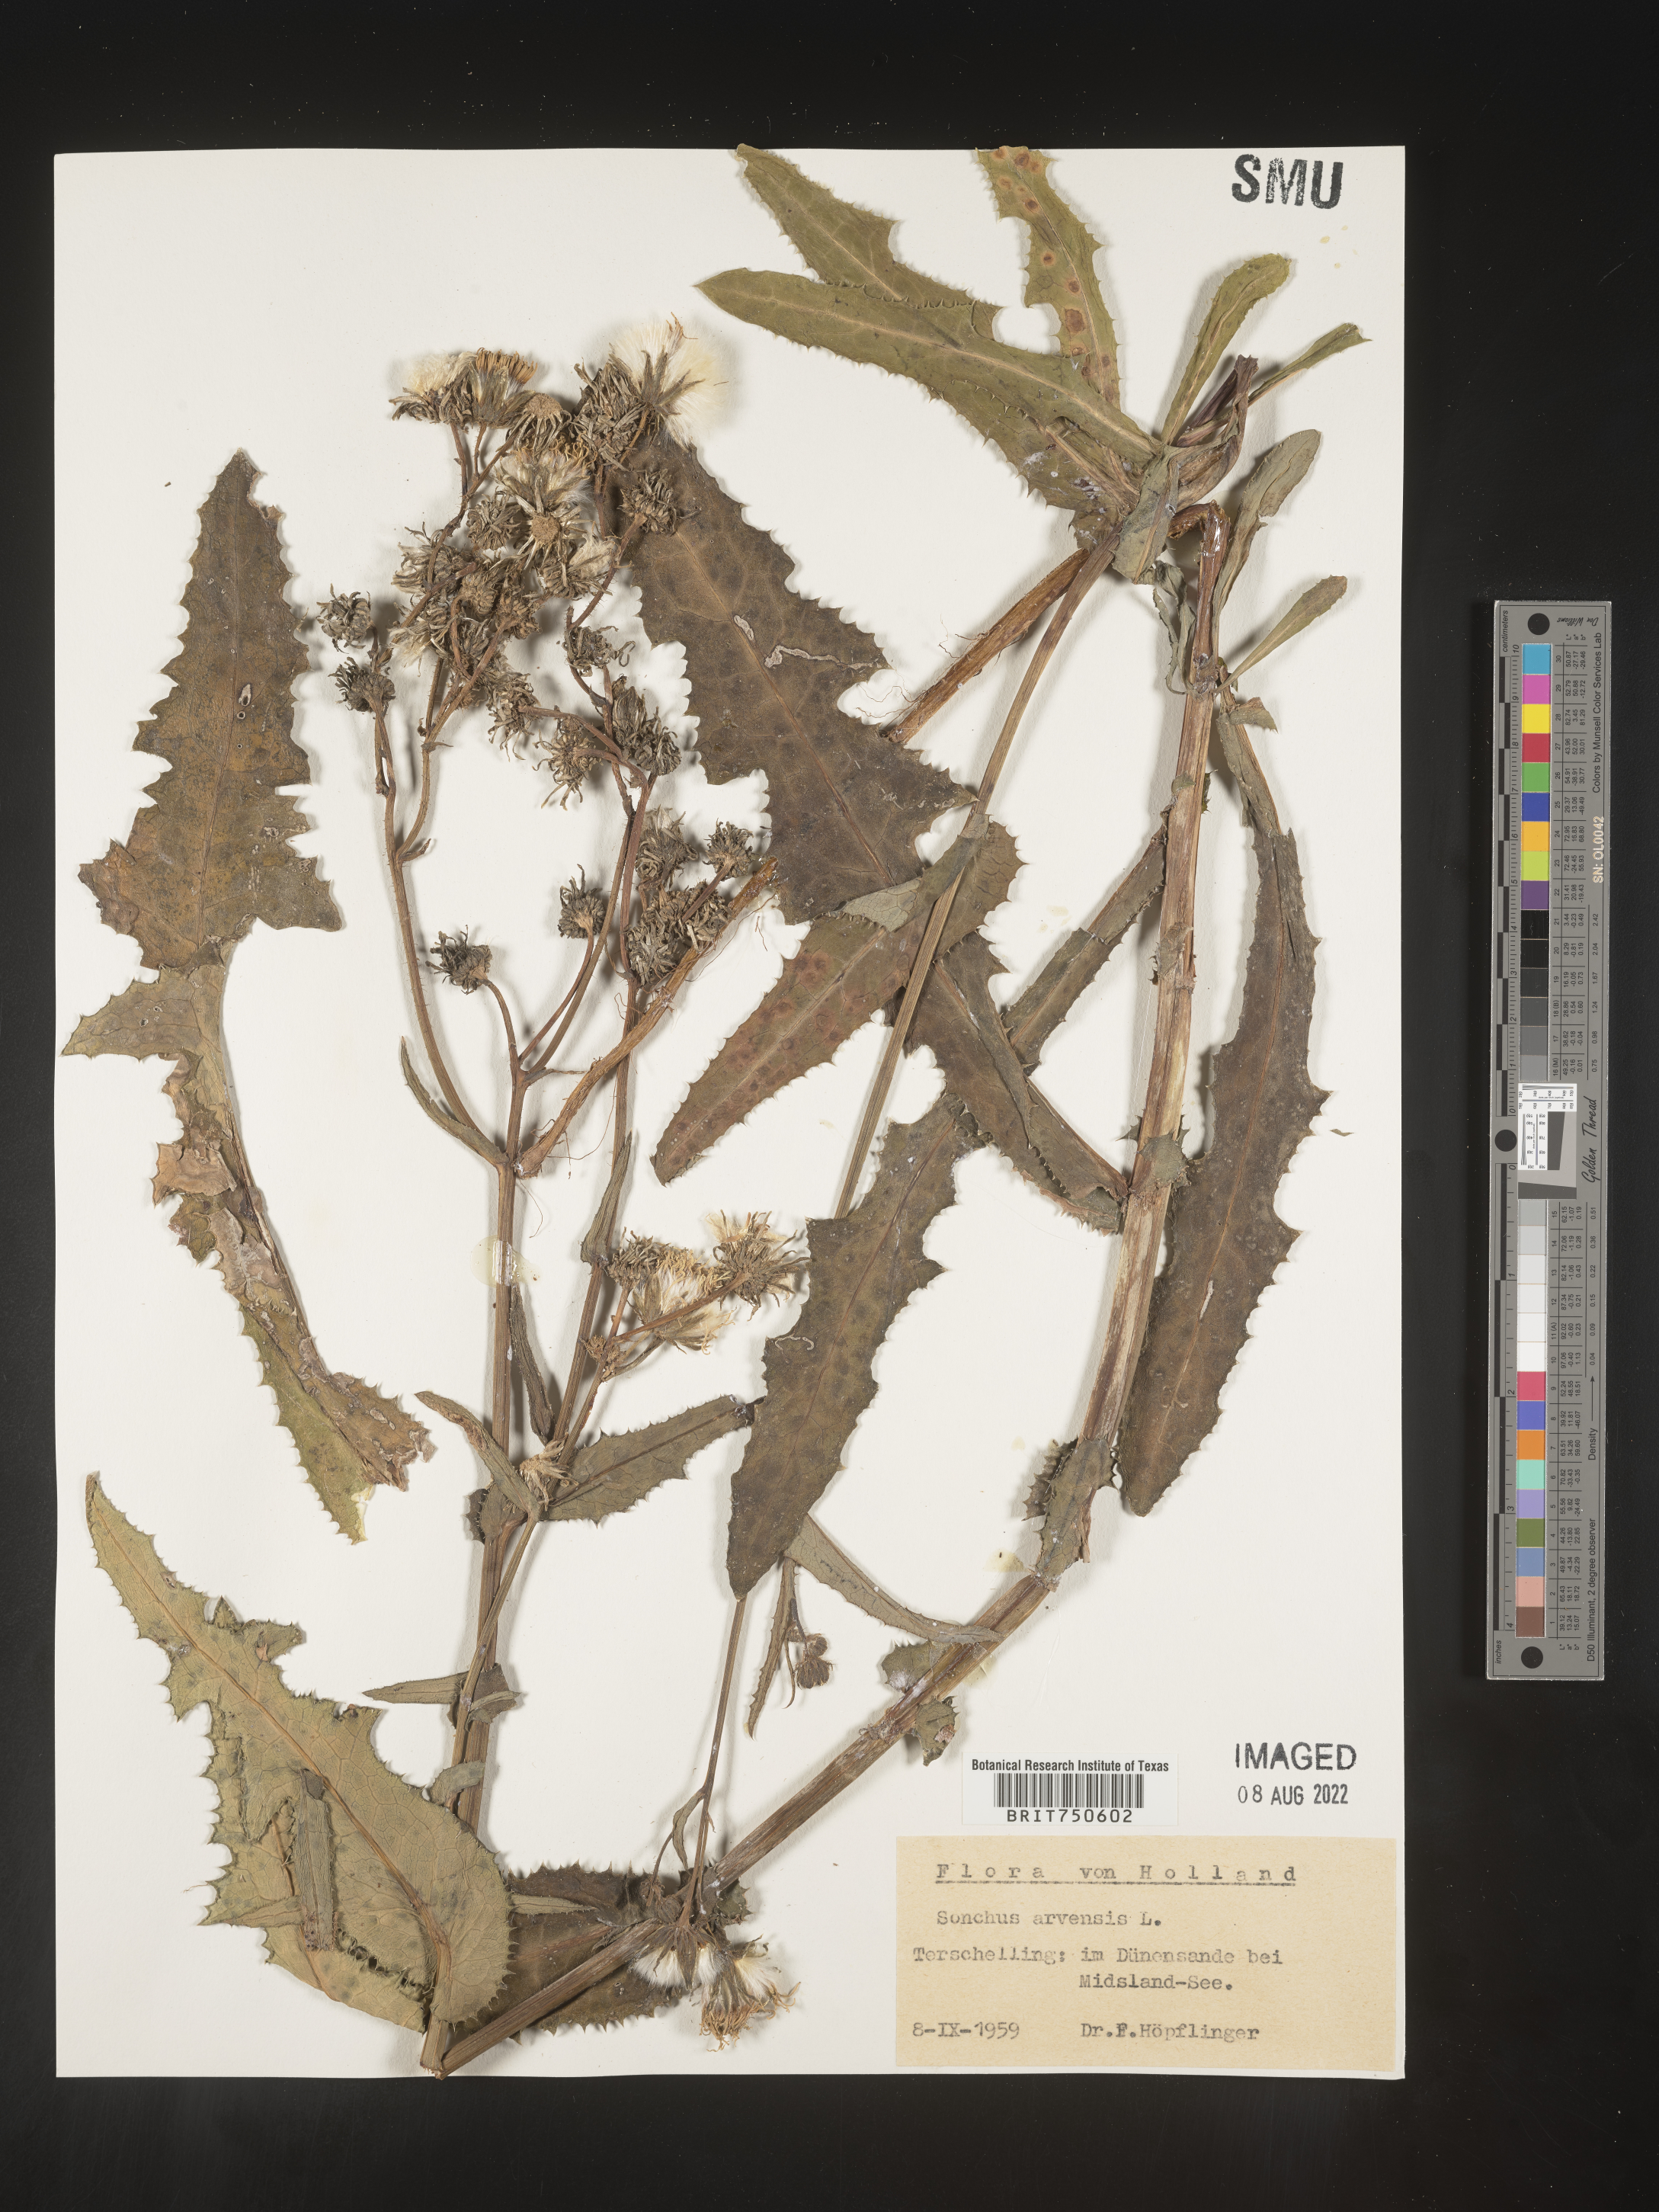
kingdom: Plantae
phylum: Tracheophyta
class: Magnoliopsida
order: Asterales
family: Asteraceae
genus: Sonchus
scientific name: Sonchus
